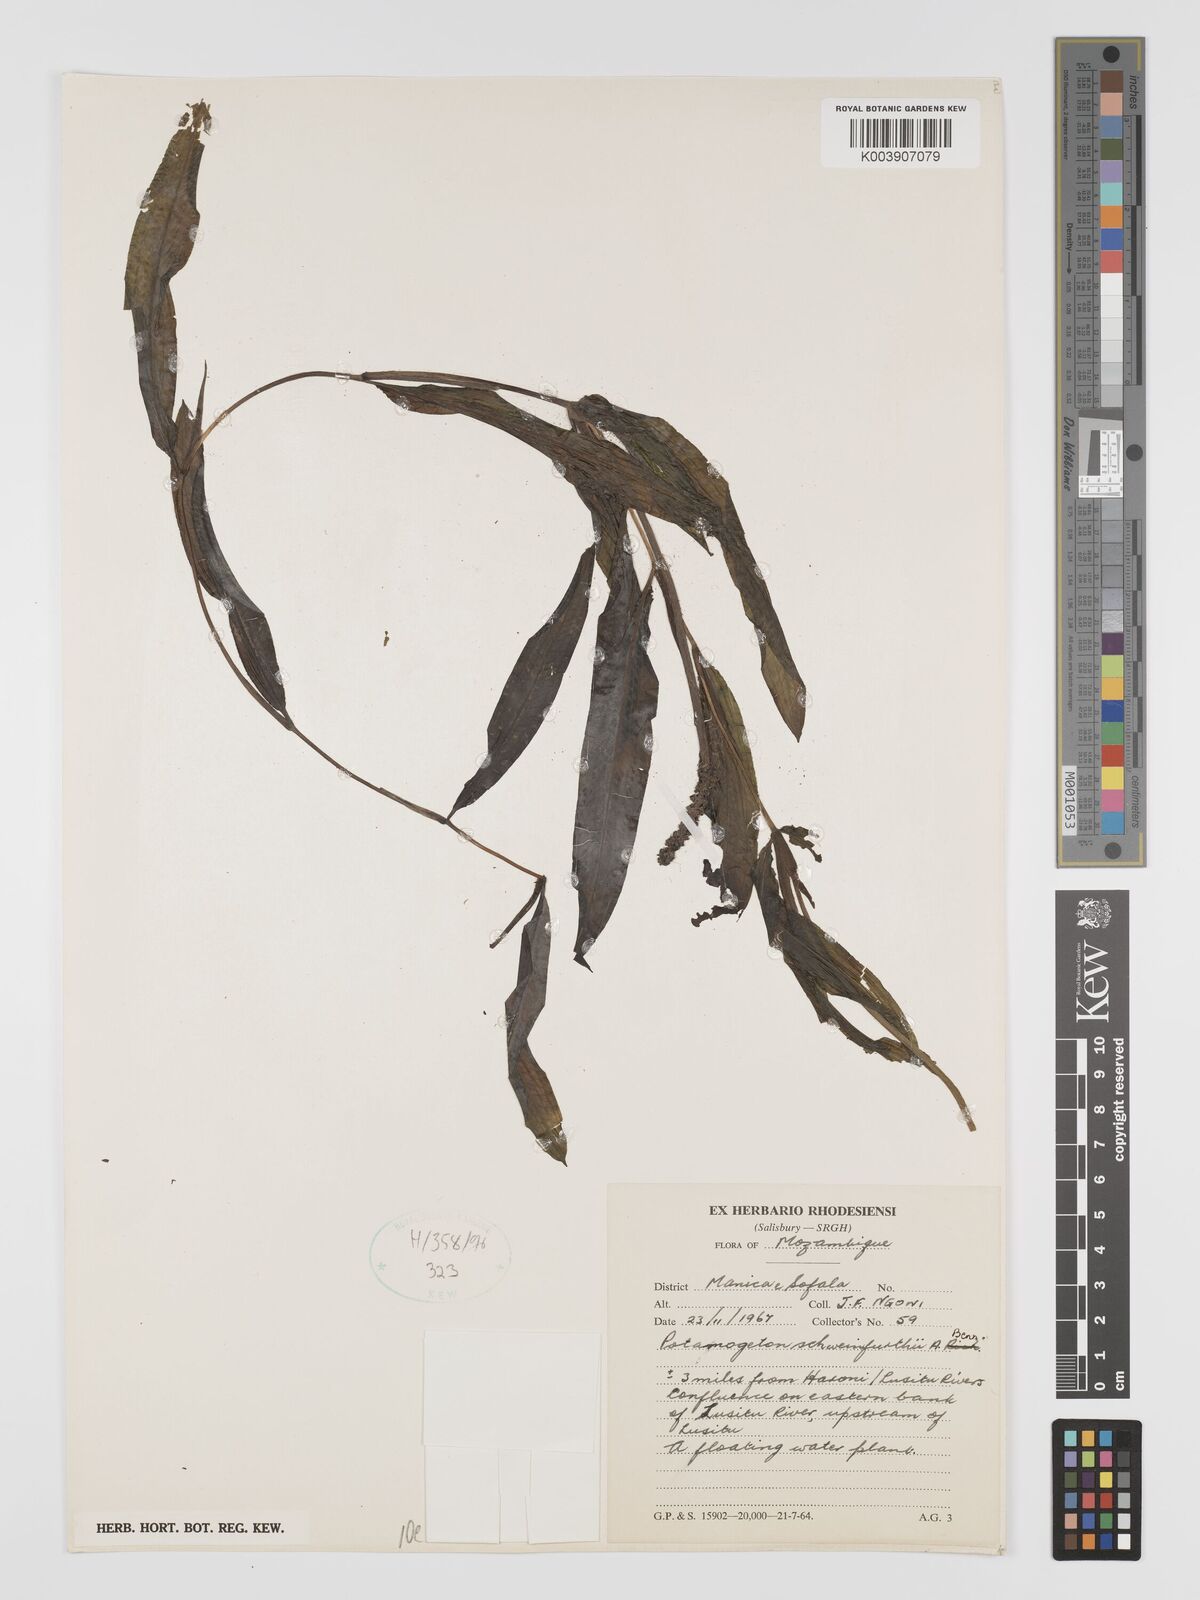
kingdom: Plantae
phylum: Tracheophyta
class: Liliopsida
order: Alismatales
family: Potamogetonaceae
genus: Potamogeton
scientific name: Potamogeton schweinfurthii
